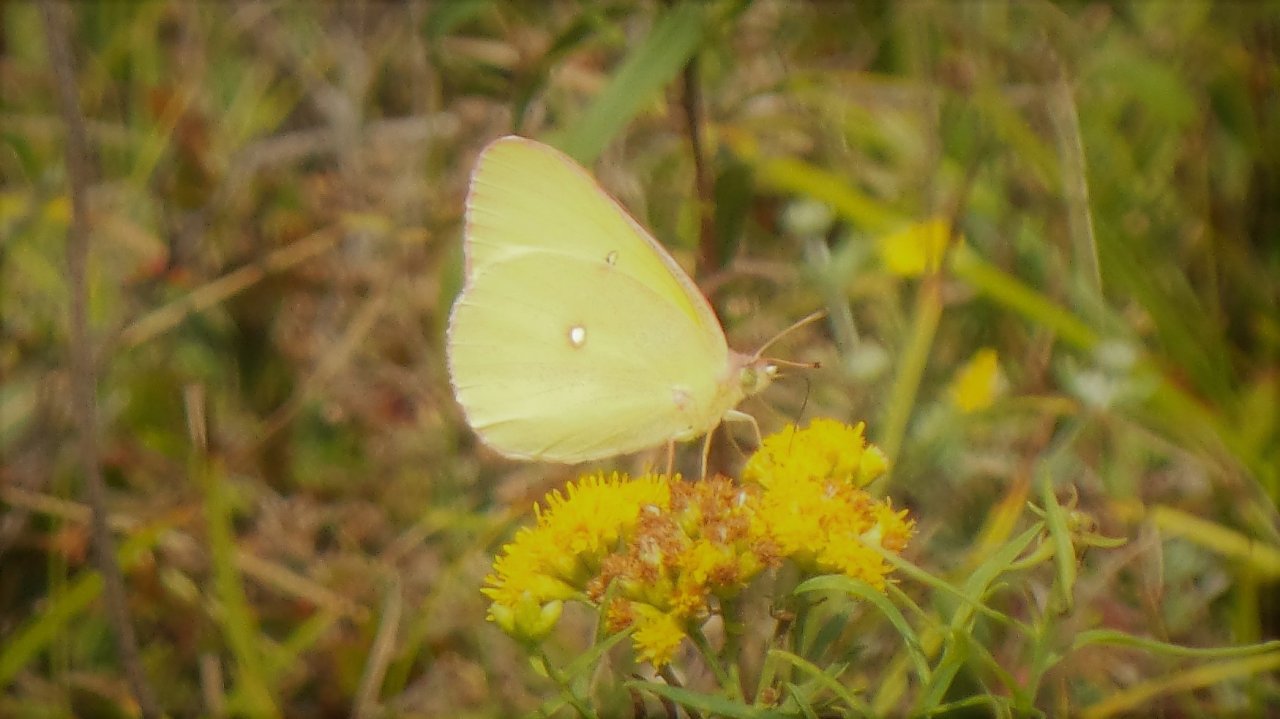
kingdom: Animalia
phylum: Arthropoda
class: Insecta
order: Lepidoptera
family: Pieridae
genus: Colias
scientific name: Colias interior
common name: Pink-edged Sulphur
